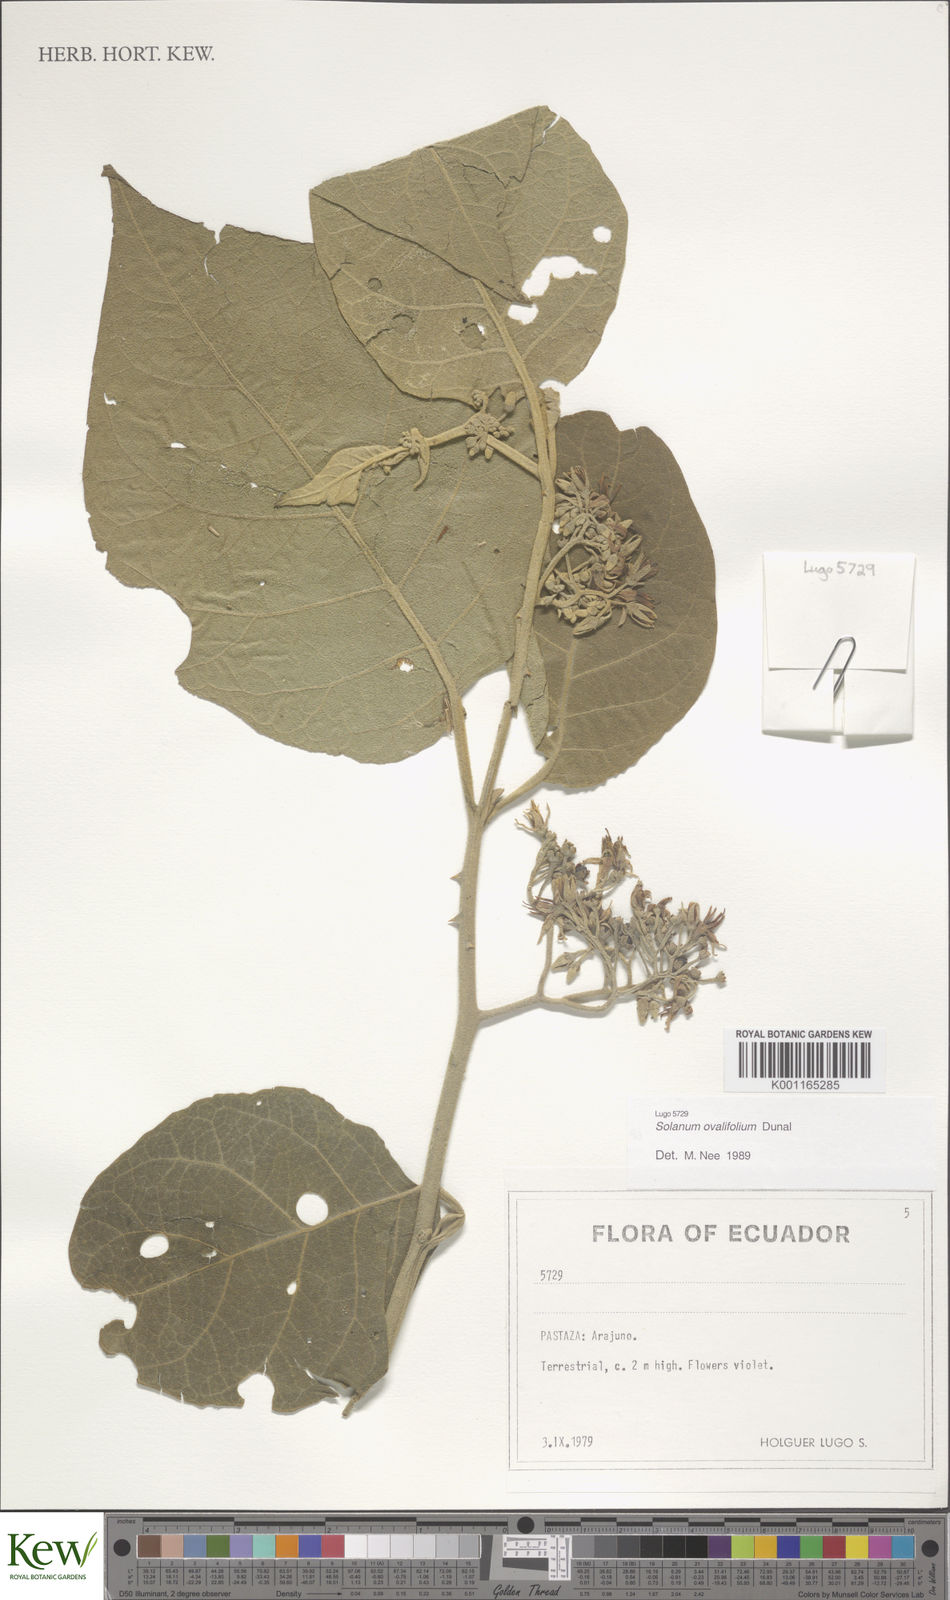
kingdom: Plantae
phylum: Tracheophyta
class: Magnoliopsida
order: Solanales
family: Solanaceae
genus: Solanum
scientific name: Solanum ovalifolium
